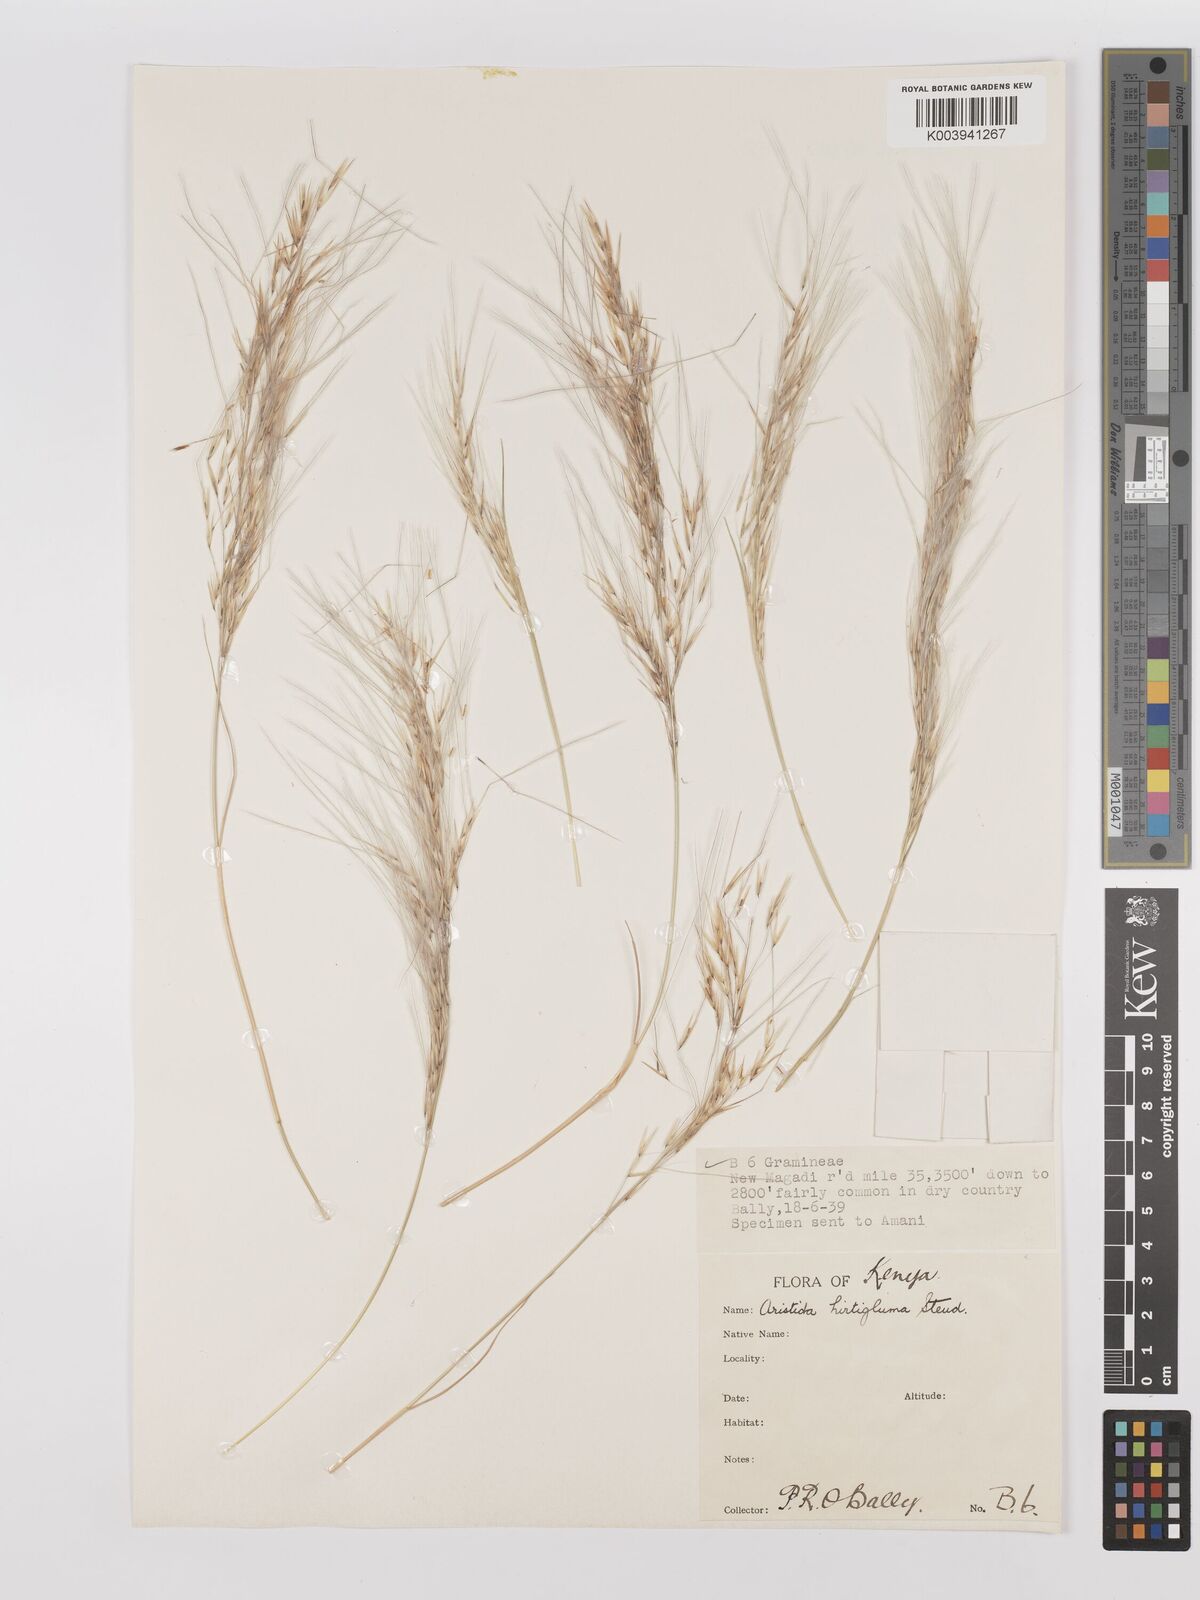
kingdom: Plantae
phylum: Tracheophyta
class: Liliopsida
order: Poales
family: Poaceae
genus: Stipagrostis
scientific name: Stipagrostis hirtigluma
